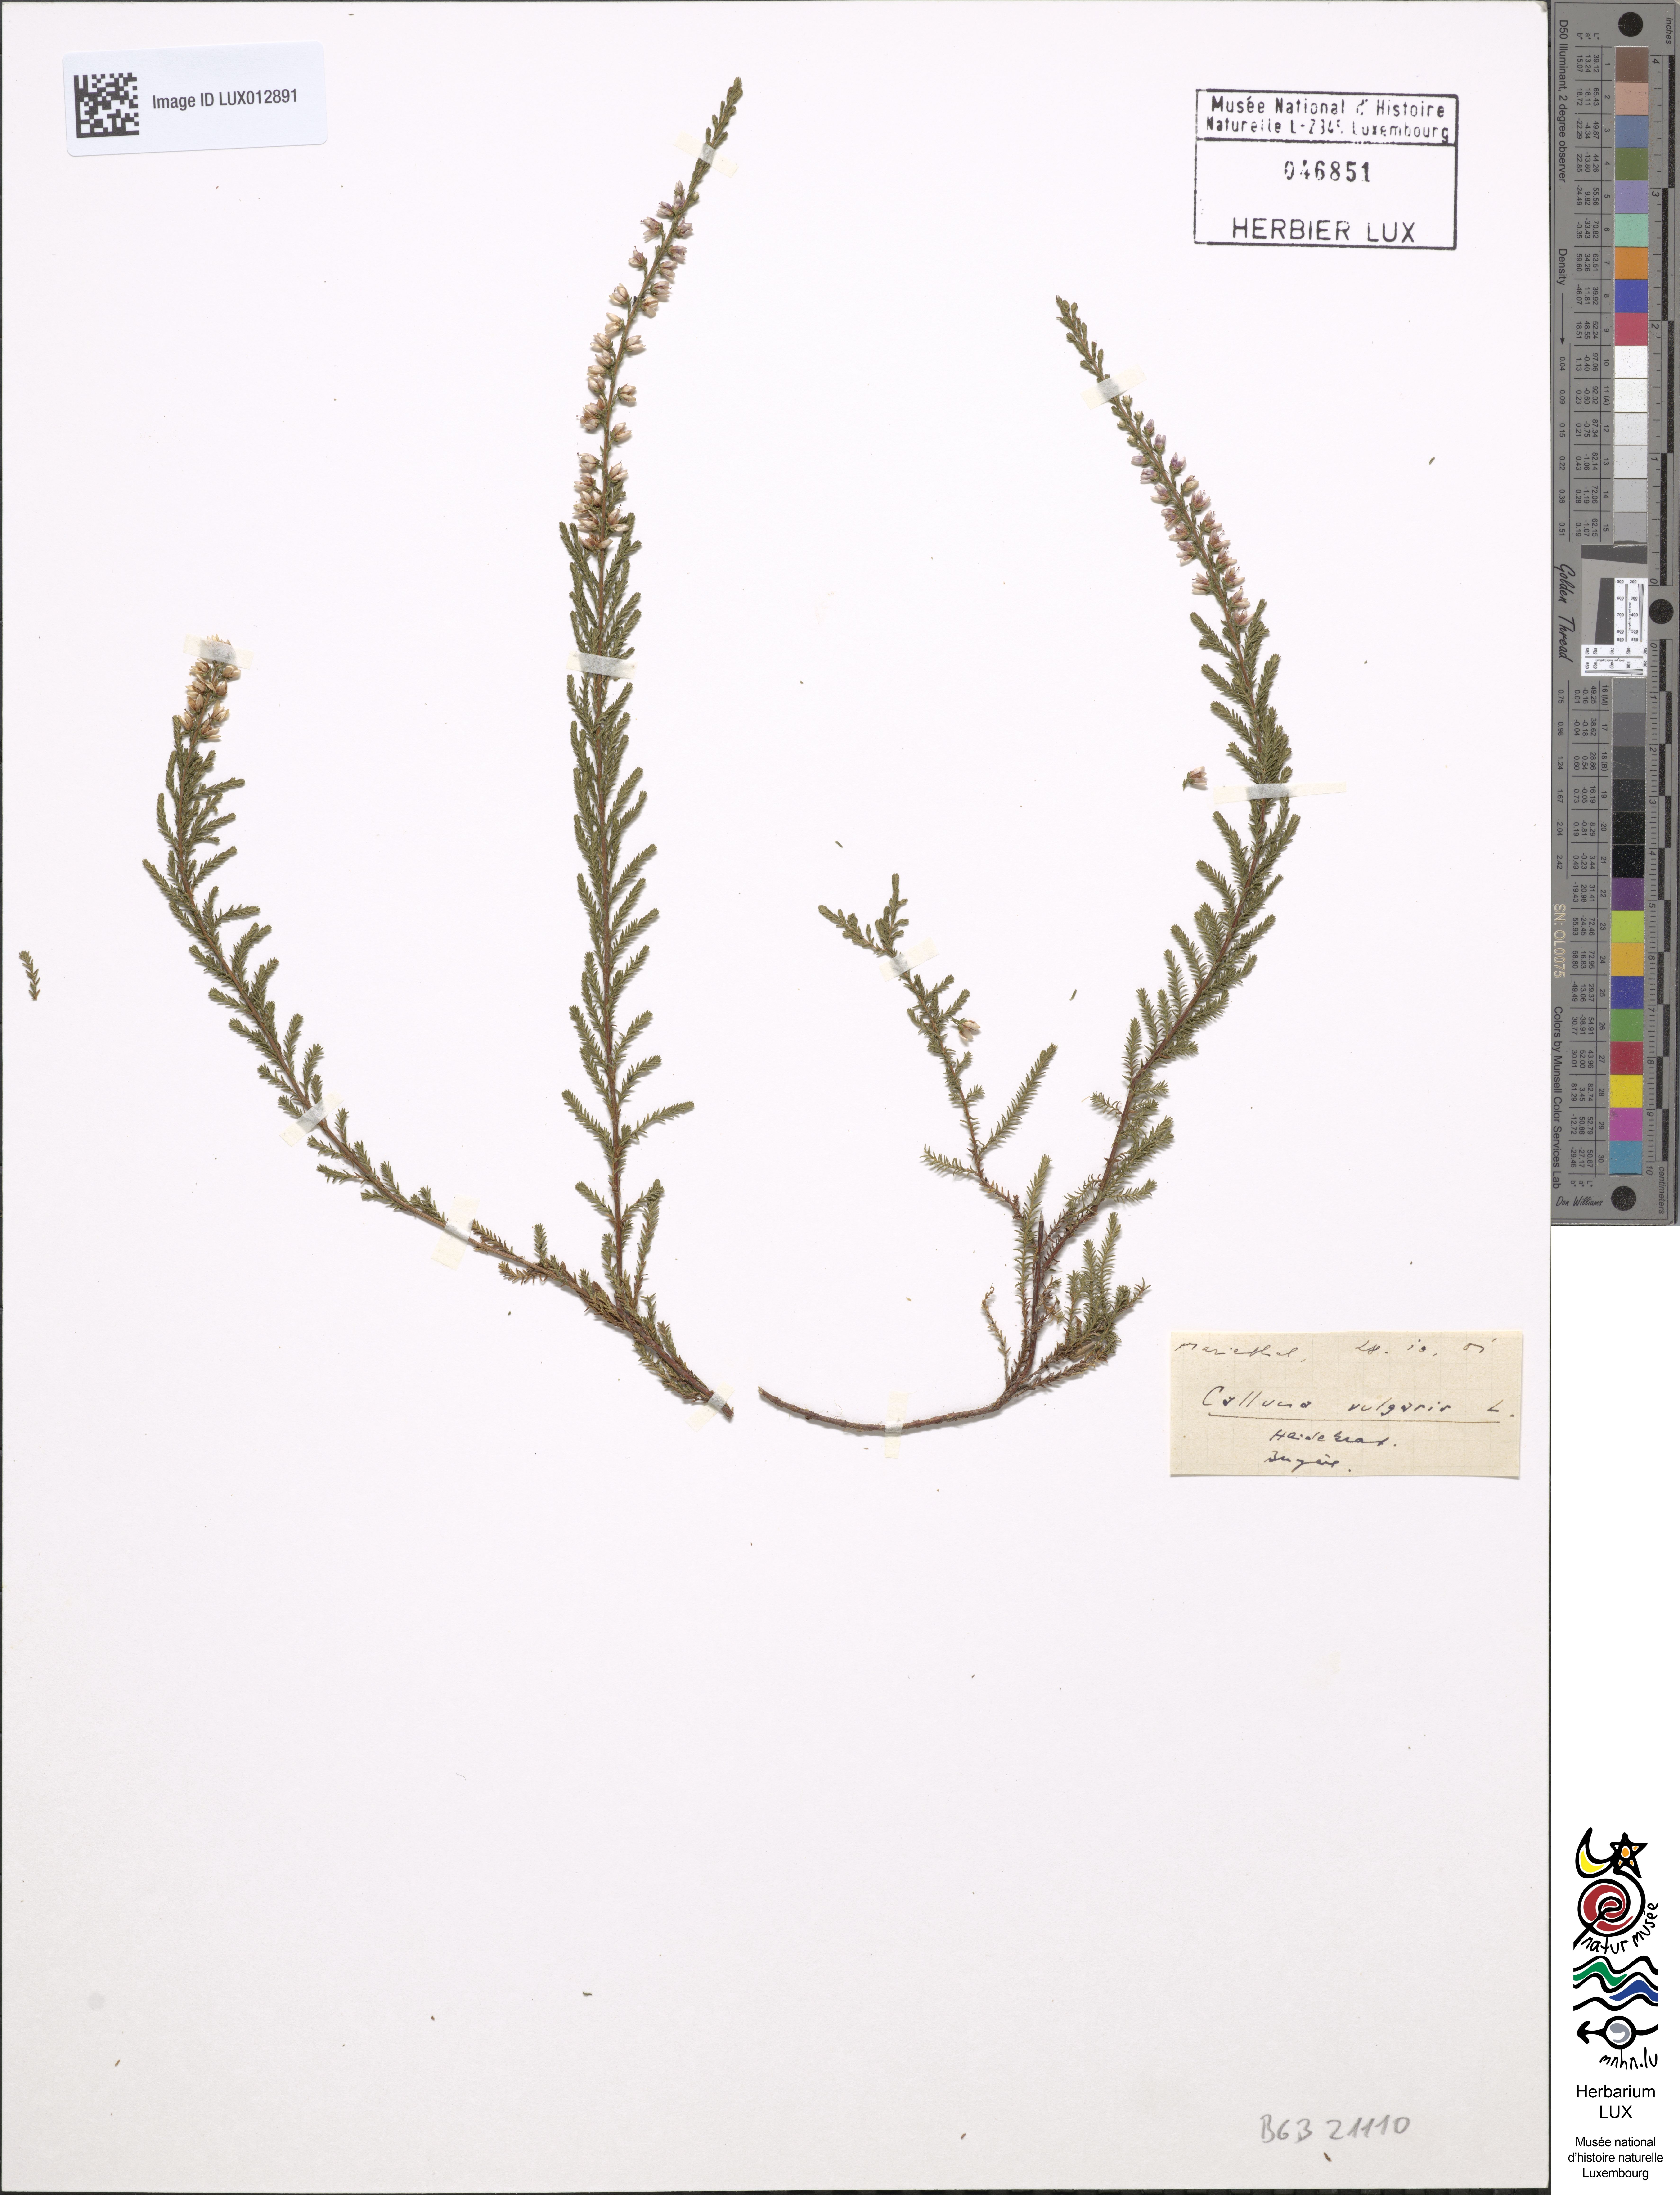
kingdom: Plantae
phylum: Tracheophyta
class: Magnoliopsida
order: Ericales
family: Ericaceae
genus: Calluna
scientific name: Calluna vulgaris
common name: Heather
